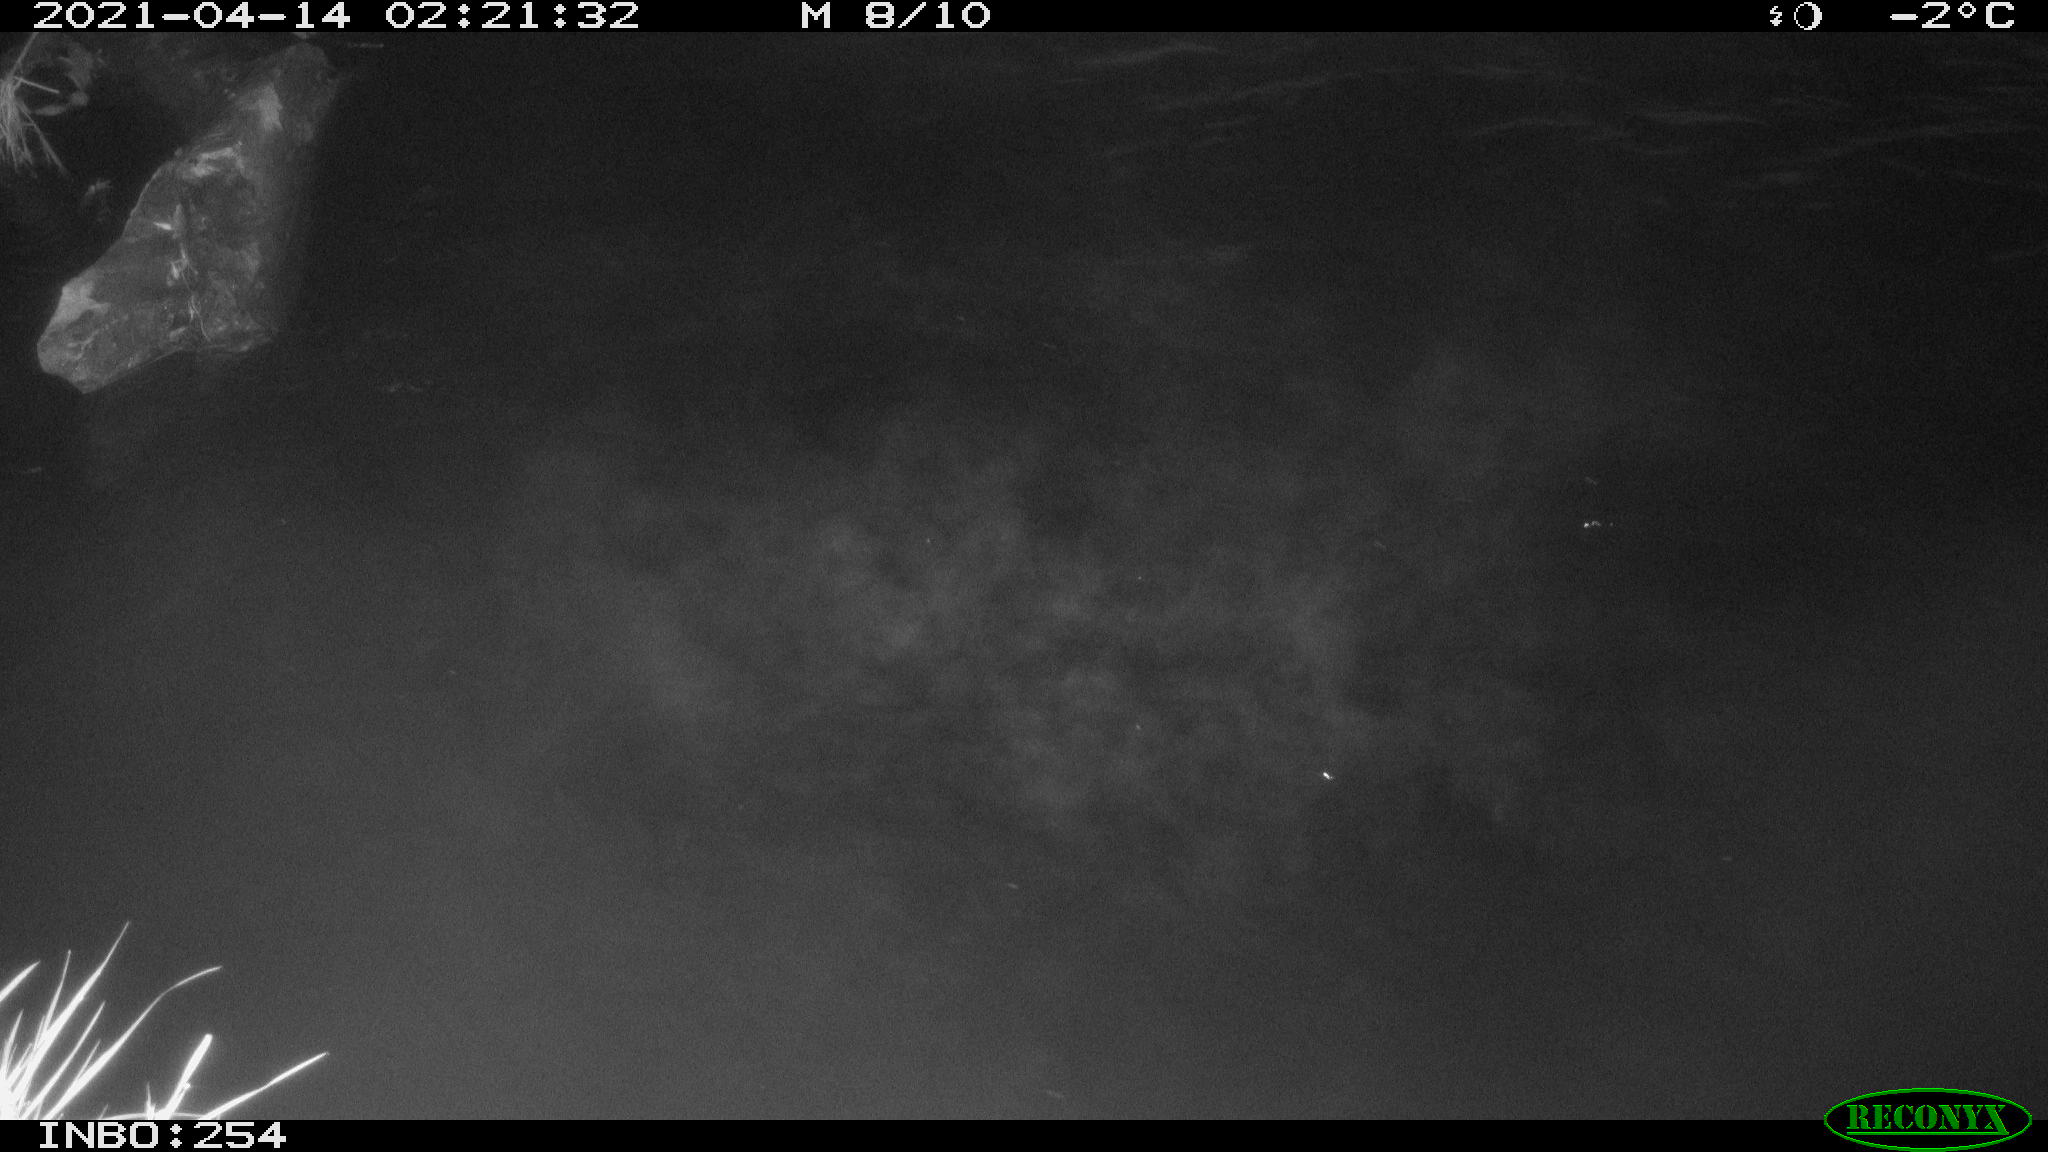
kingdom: Animalia
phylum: Chordata
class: Aves
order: Anseriformes
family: Anatidae
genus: Anas
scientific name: Anas
